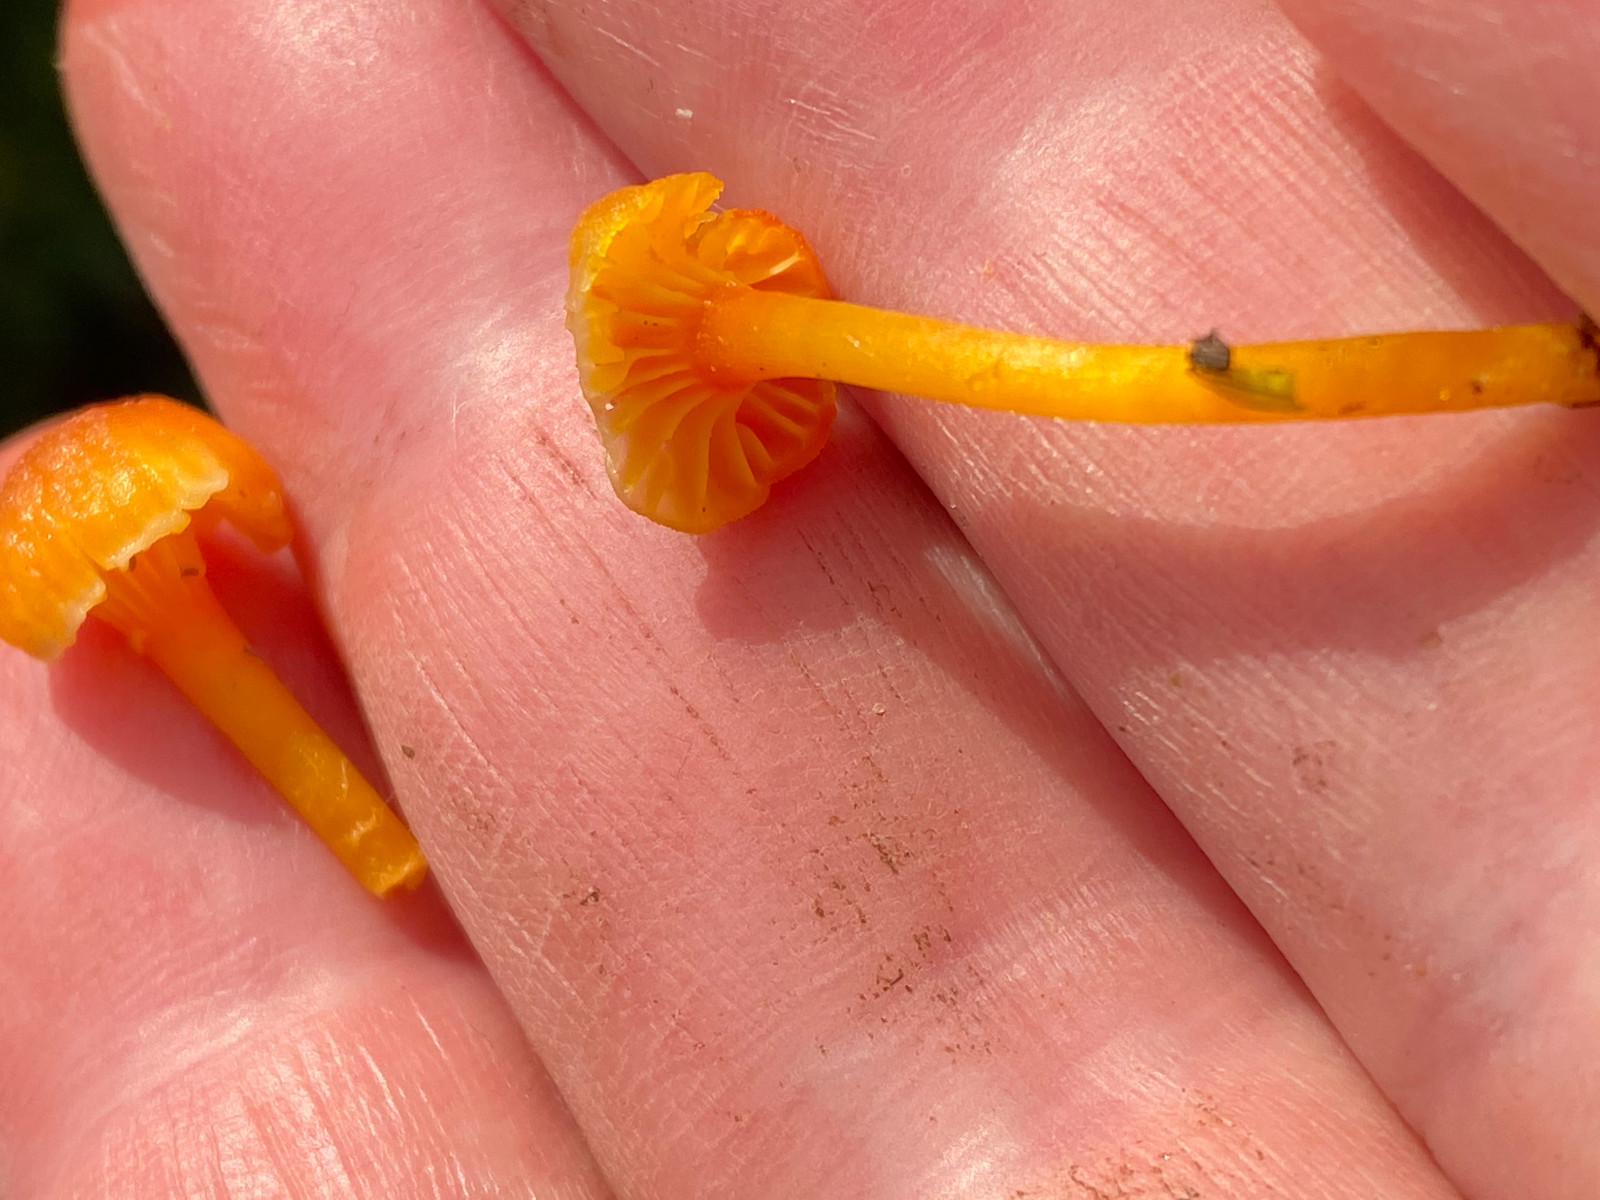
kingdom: Fungi
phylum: Basidiomycota
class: Agaricomycetes
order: Agaricales
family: Hygrophoraceae
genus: Hygrocybe
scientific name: Hygrocybe cantharellus
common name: kantarel-vokshat
